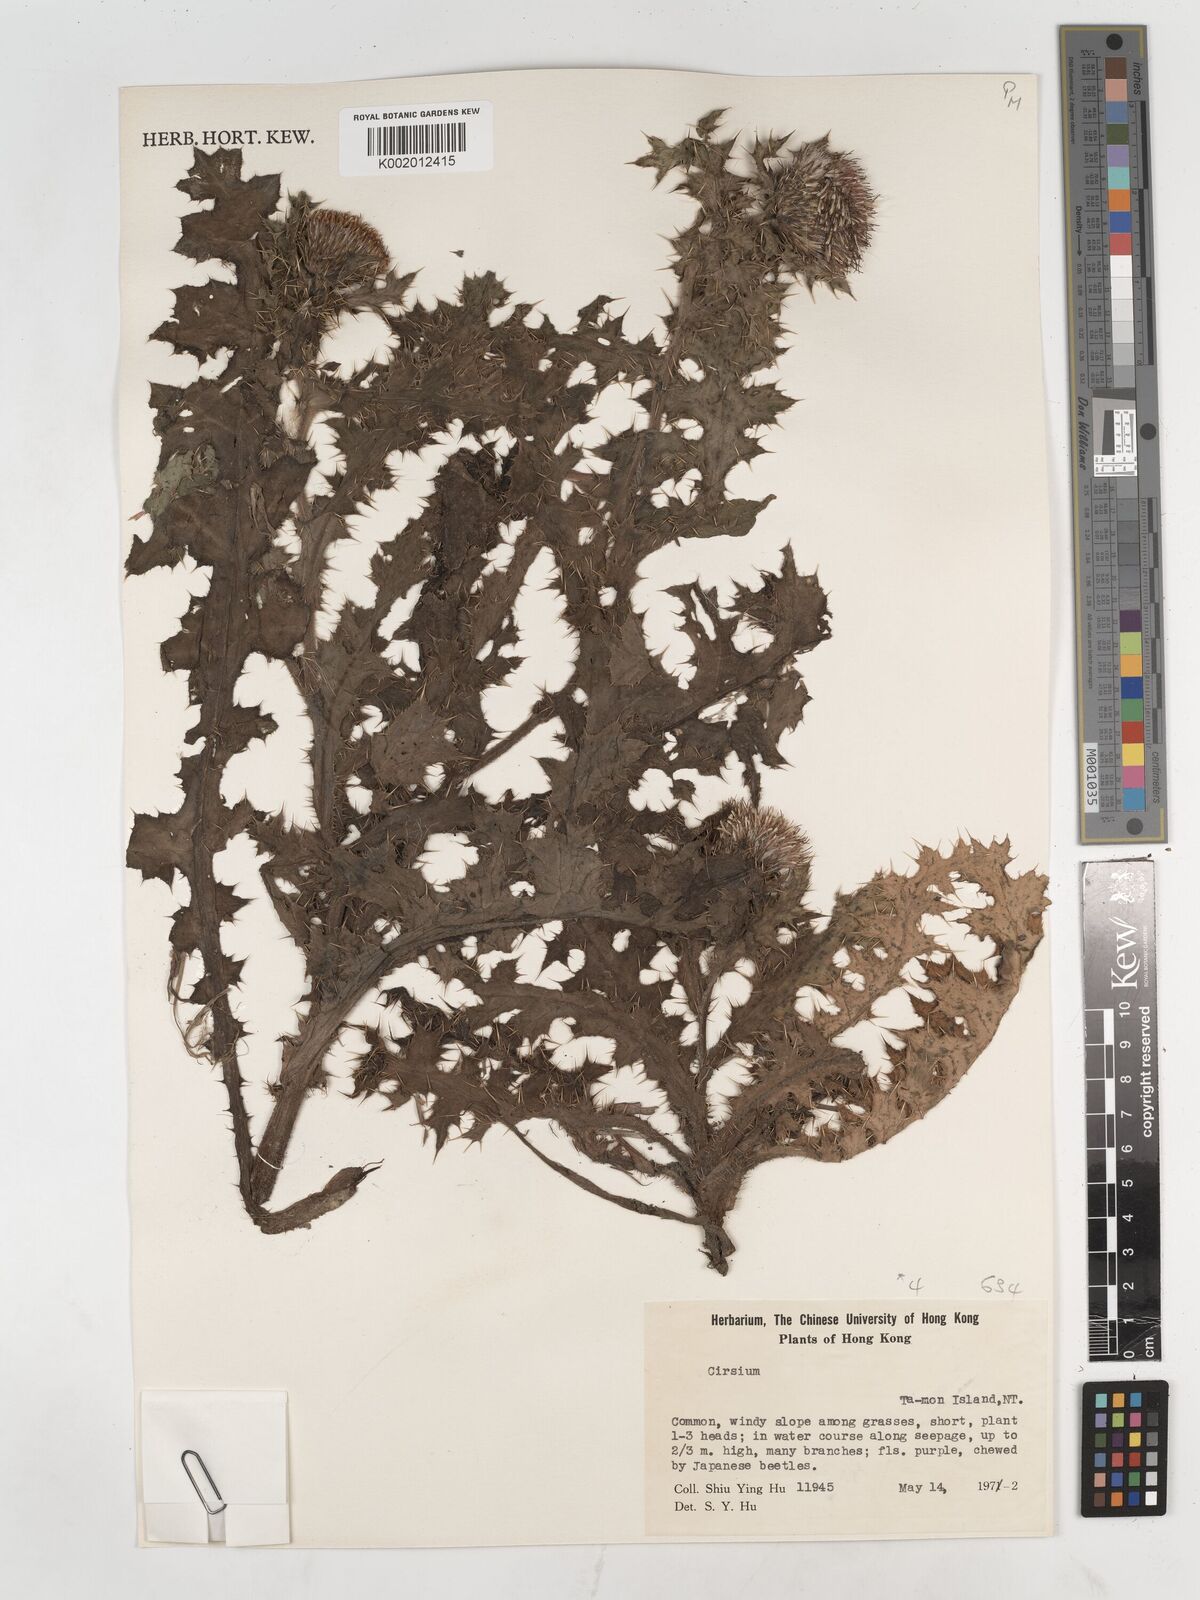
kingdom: Plantae
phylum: Tracheophyta
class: Magnoliopsida
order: Asterales
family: Asteraceae
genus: Cirsium
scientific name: Cirsium
